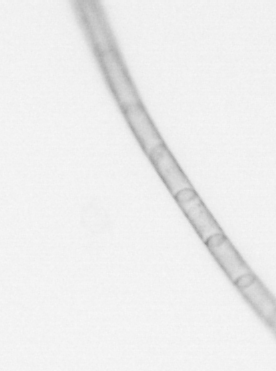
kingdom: Chromista
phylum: Ochrophyta
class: Bacillariophyceae
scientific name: Bacillariophyceae
